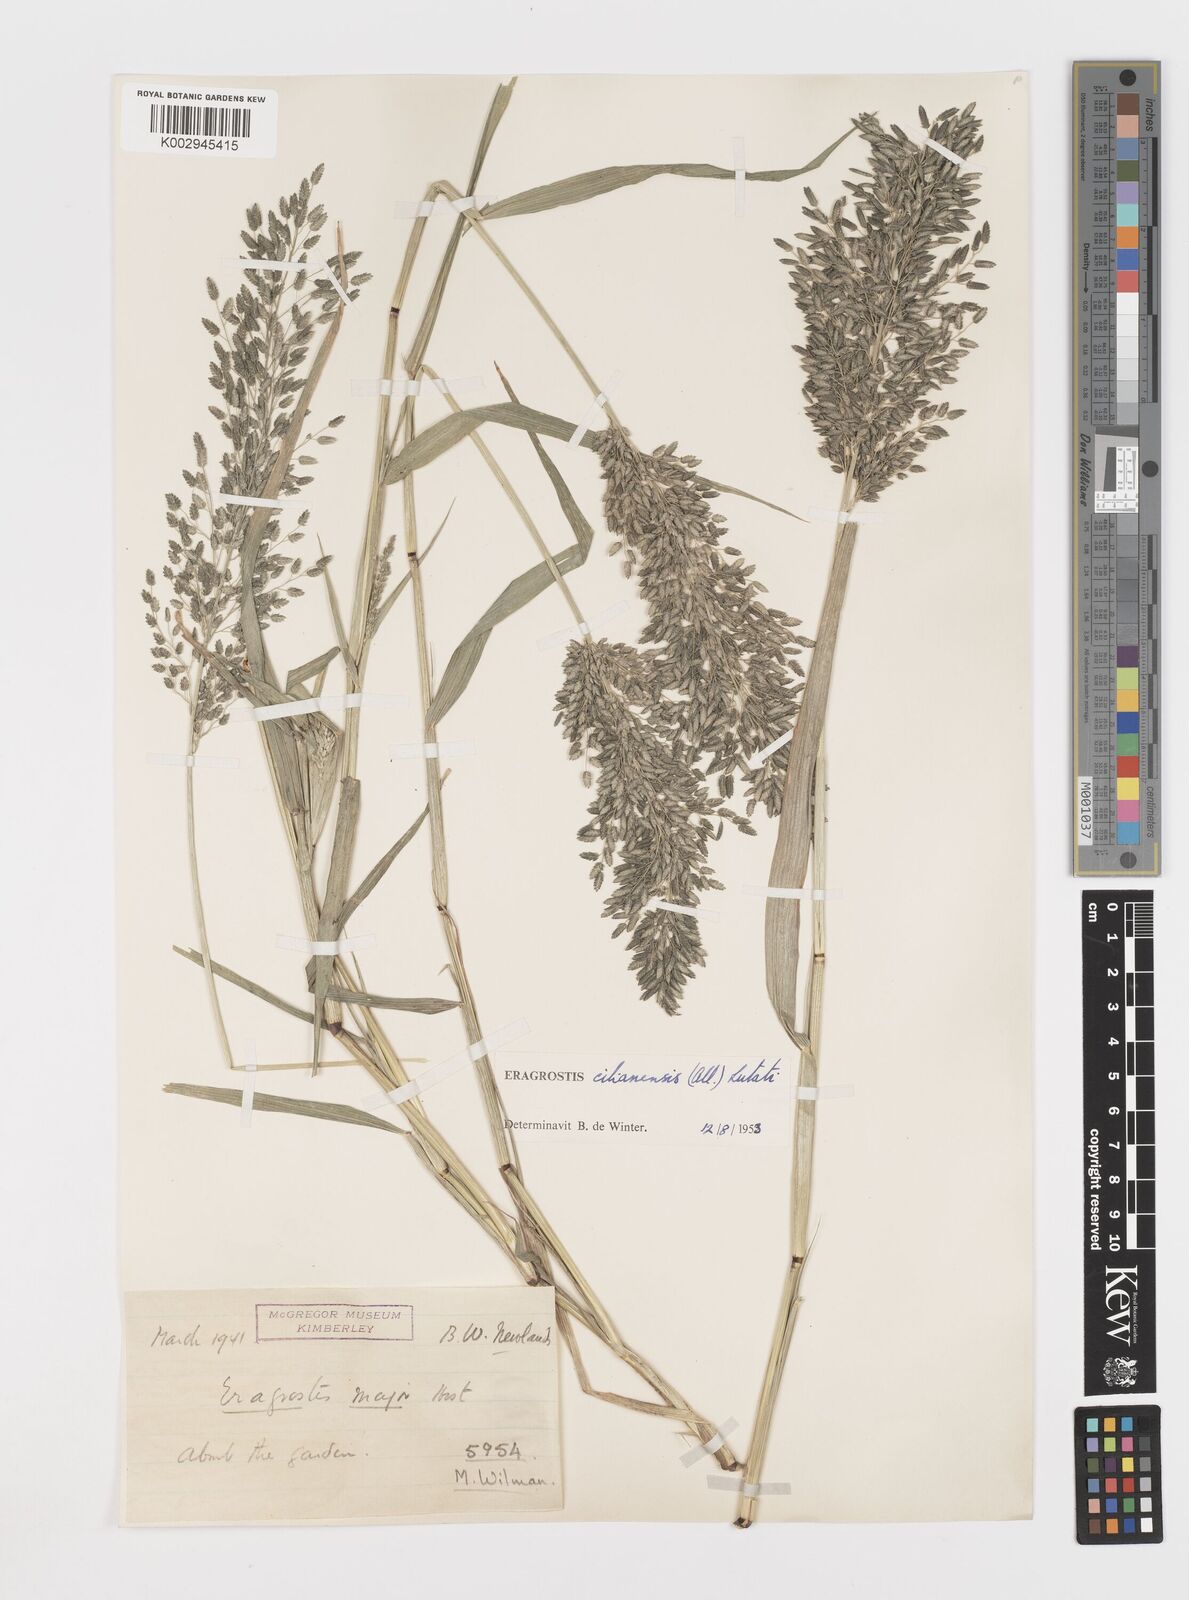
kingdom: Plantae
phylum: Tracheophyta
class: Liliopsida
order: Poales
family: Poaceae
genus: Eragrostis
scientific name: Eragrostis cilianensis
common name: Stinkgrass
